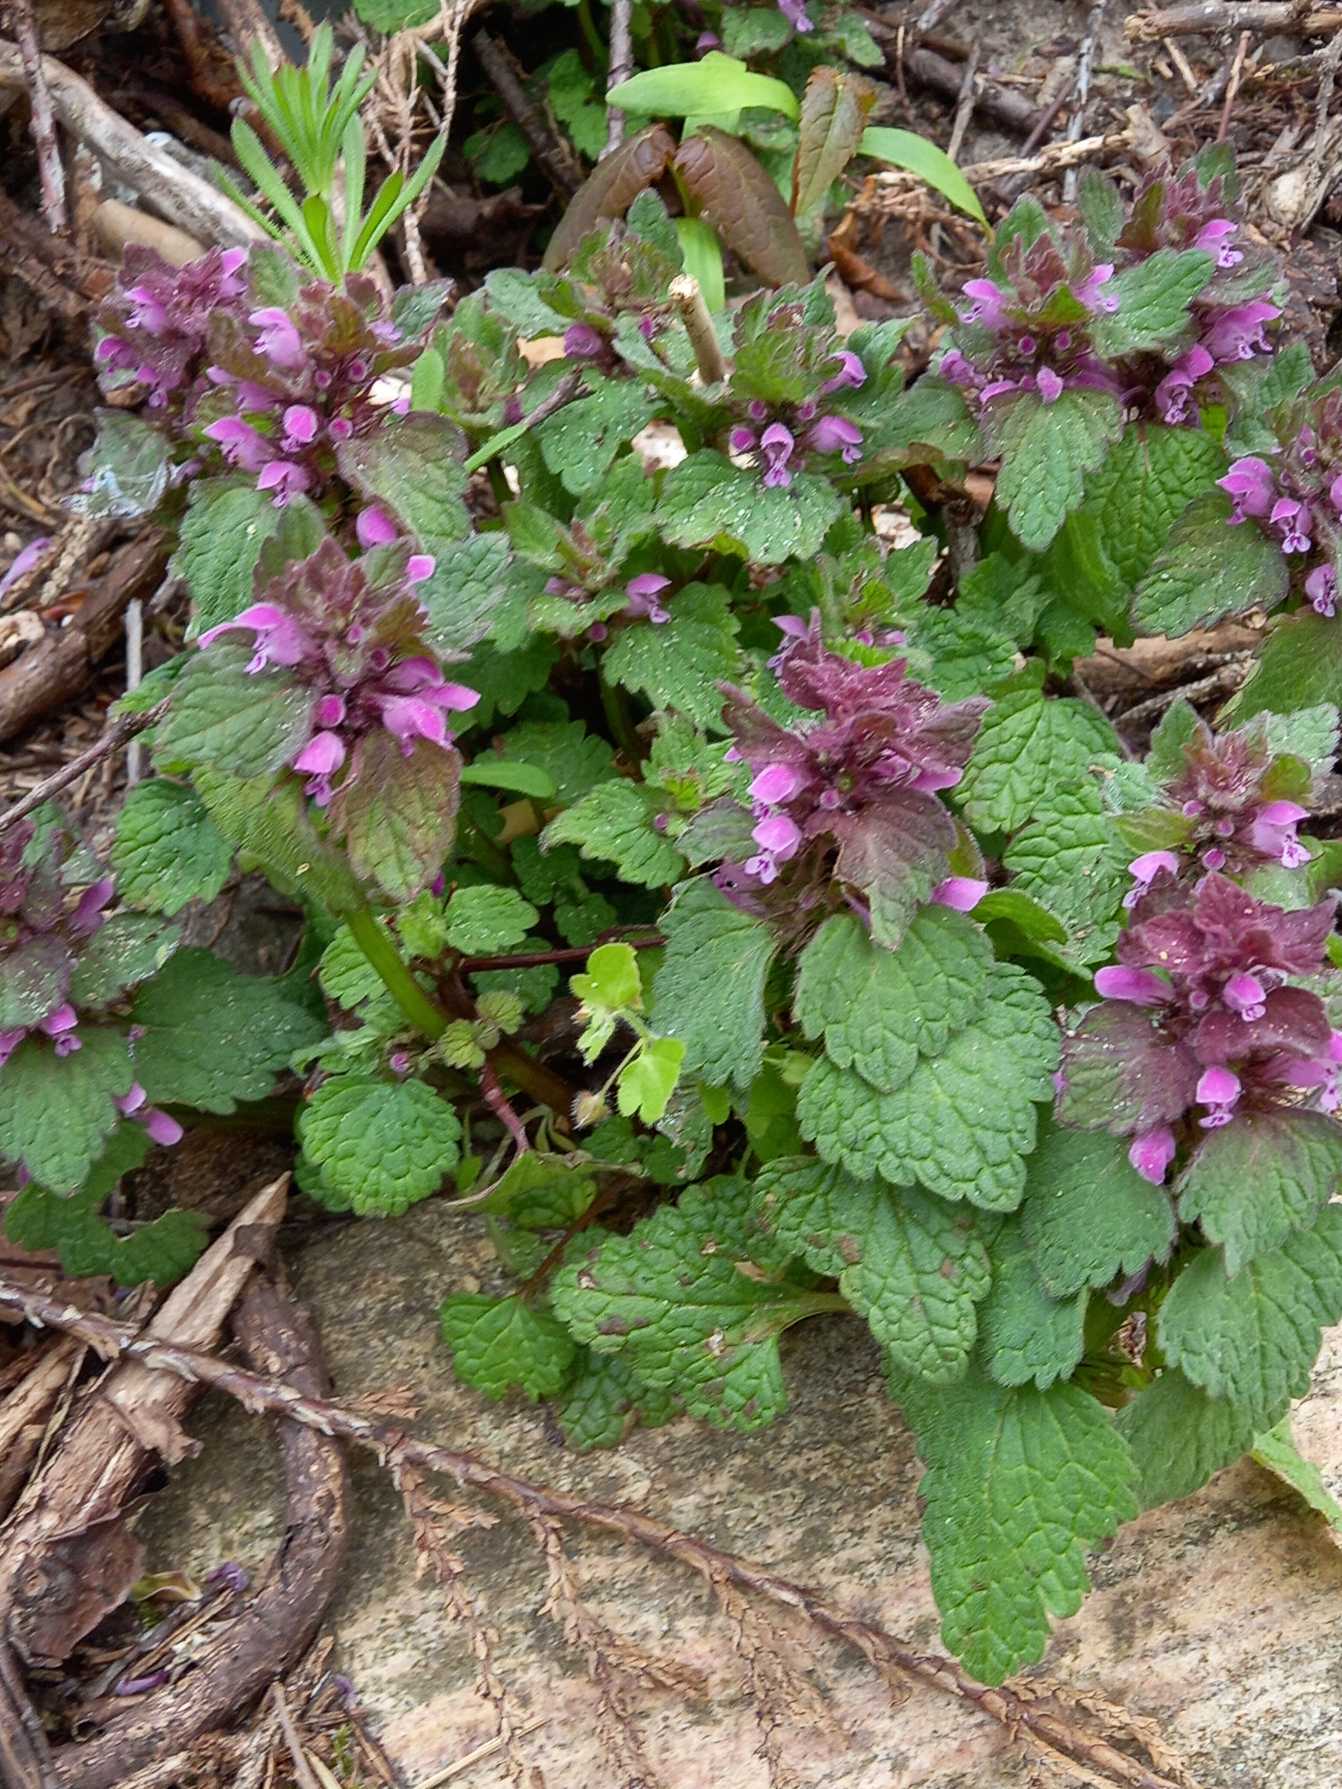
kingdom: Plantae
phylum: Tracheophyta
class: Magnoliopsida
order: Lamiales
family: Lamiaceae
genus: Lamium
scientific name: Lamium purpureum
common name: Rød tvetand
